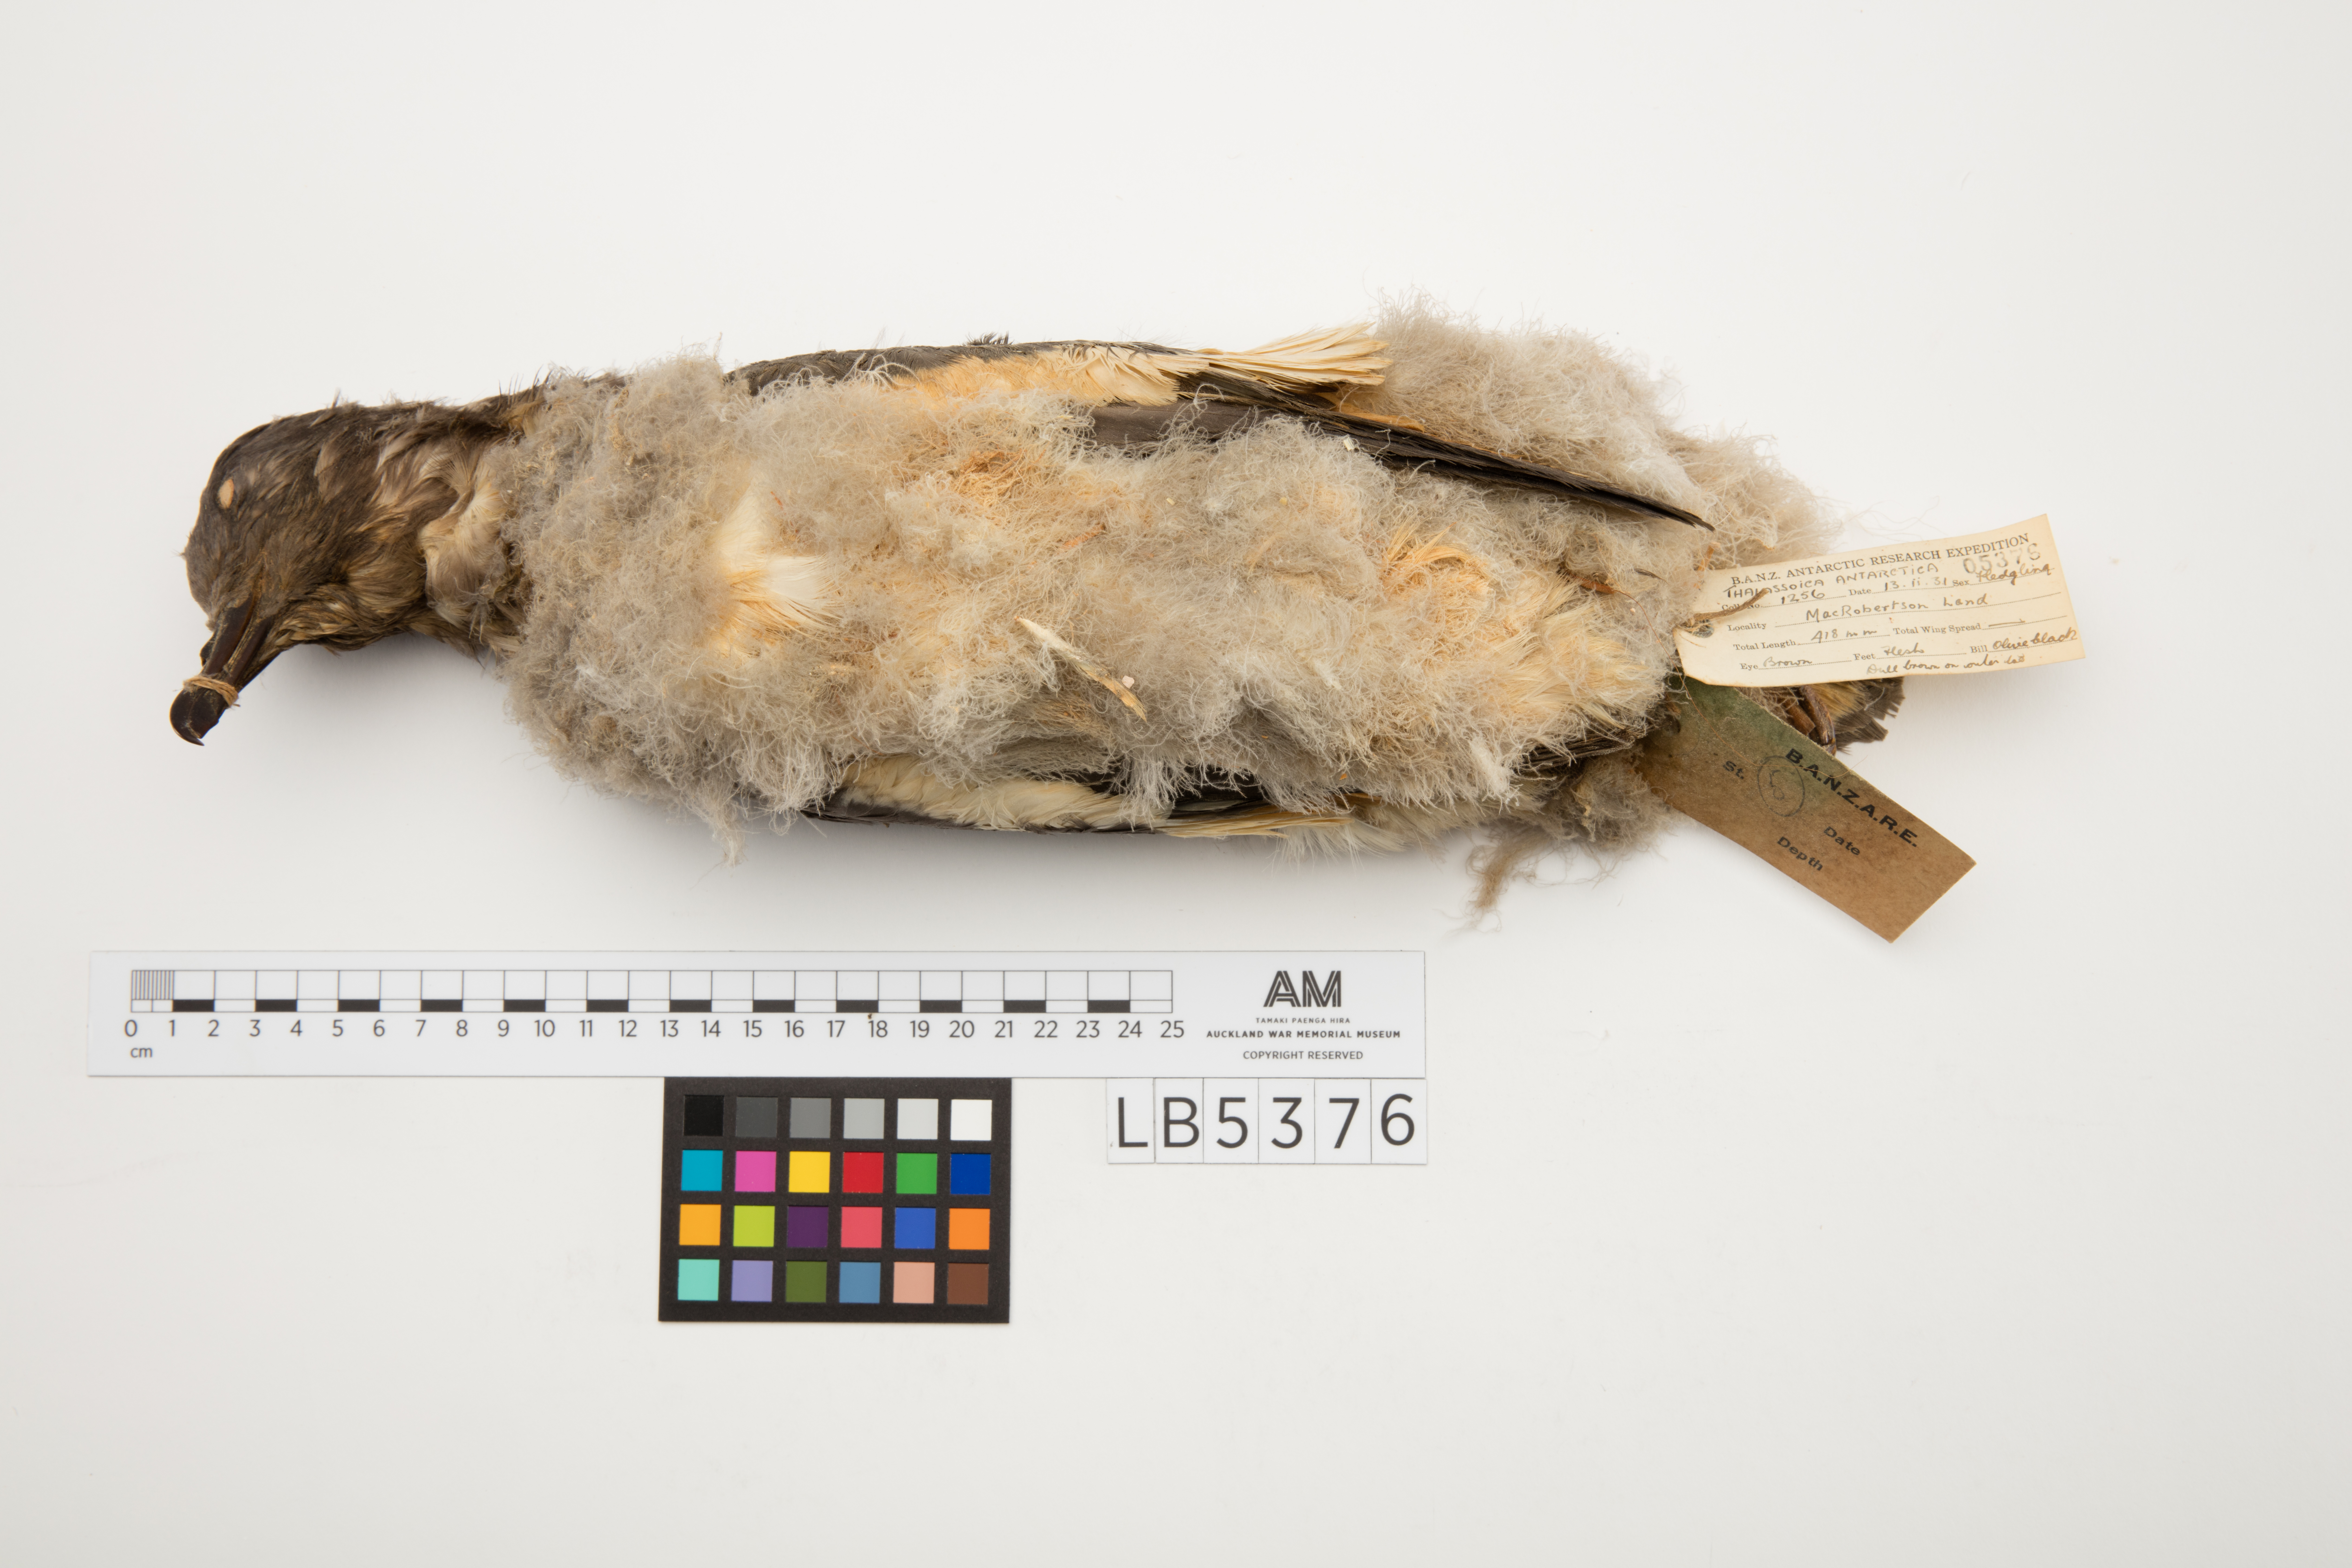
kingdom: Animalia
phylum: Chordata
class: Aves
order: Procellariiformes
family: Procellariidae
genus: Thalassoica
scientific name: Thalassoica antarctica
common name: Antarctic petrel
